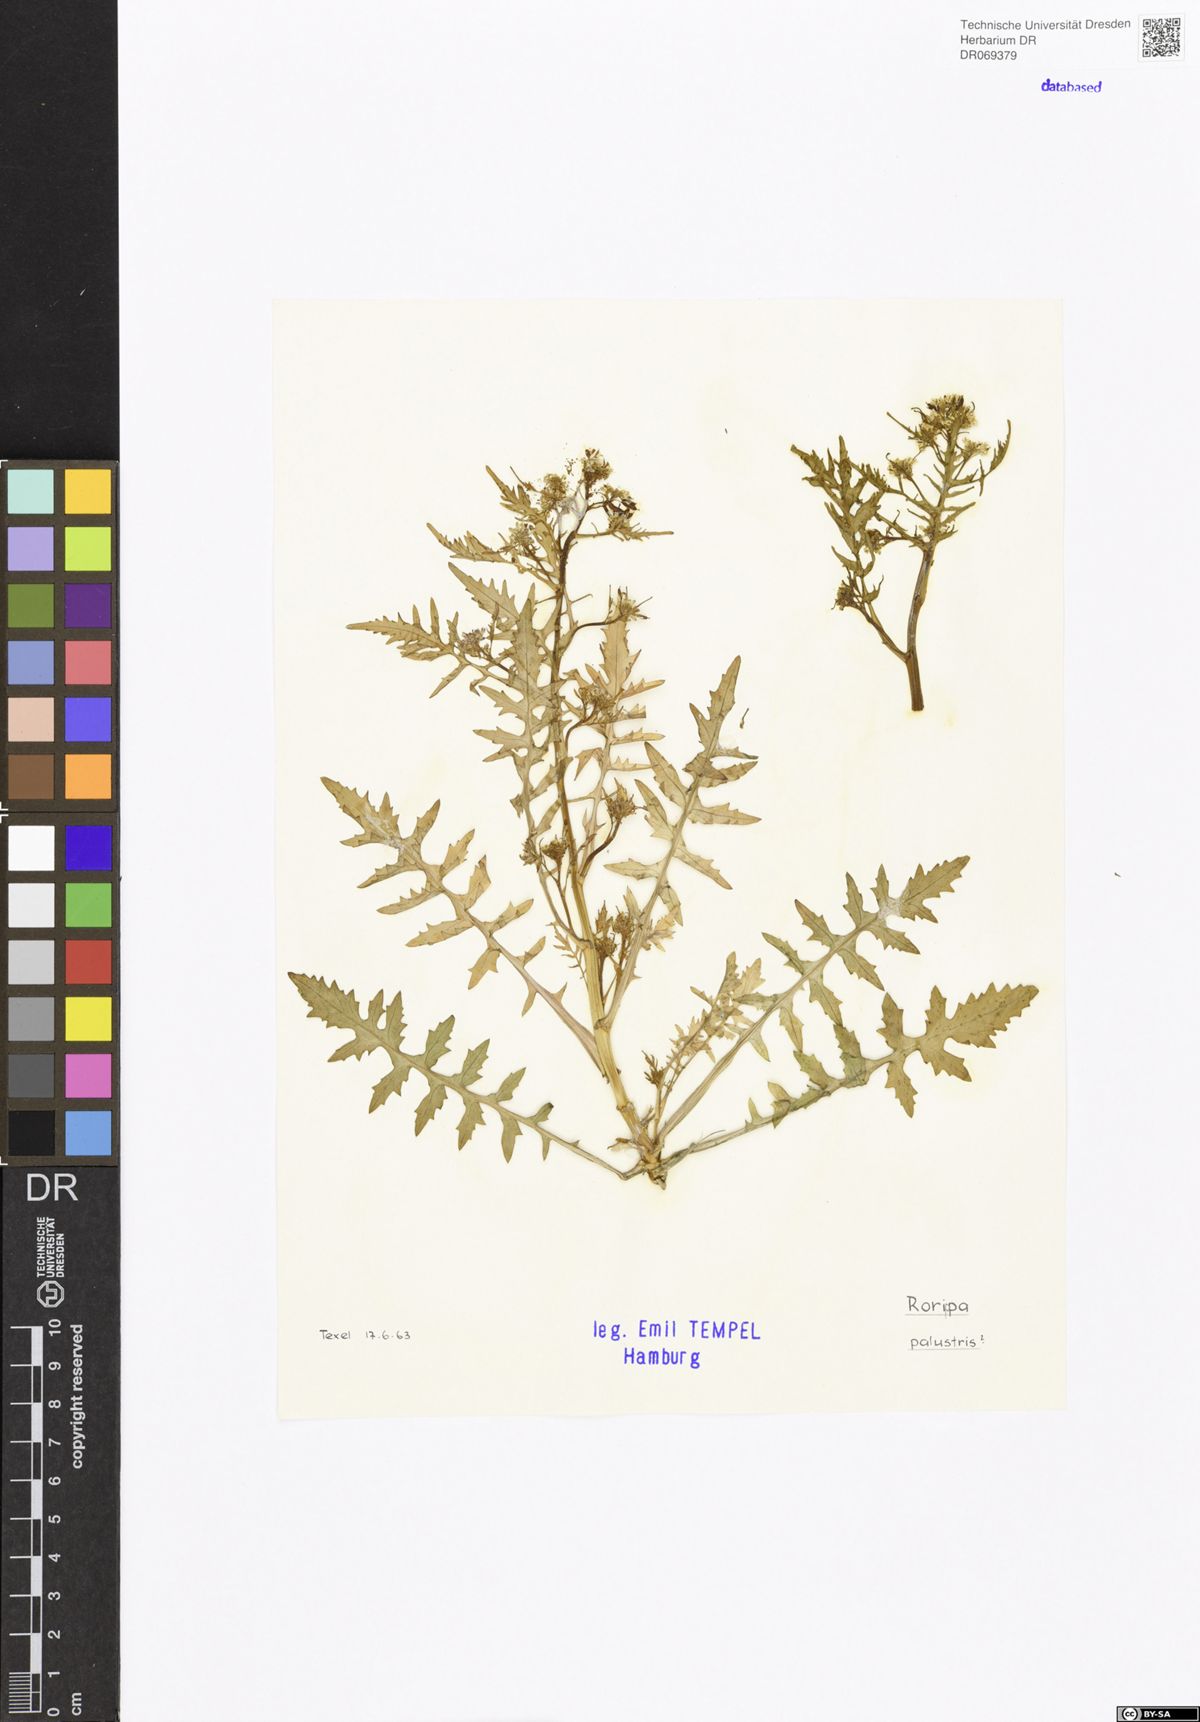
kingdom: Plantae
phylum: Tracheophyta
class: Magnoliopsida
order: Brassicales
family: Brassicaceae
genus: Rorippa
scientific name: Rorippa palustris
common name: Marsh yellow-cress
